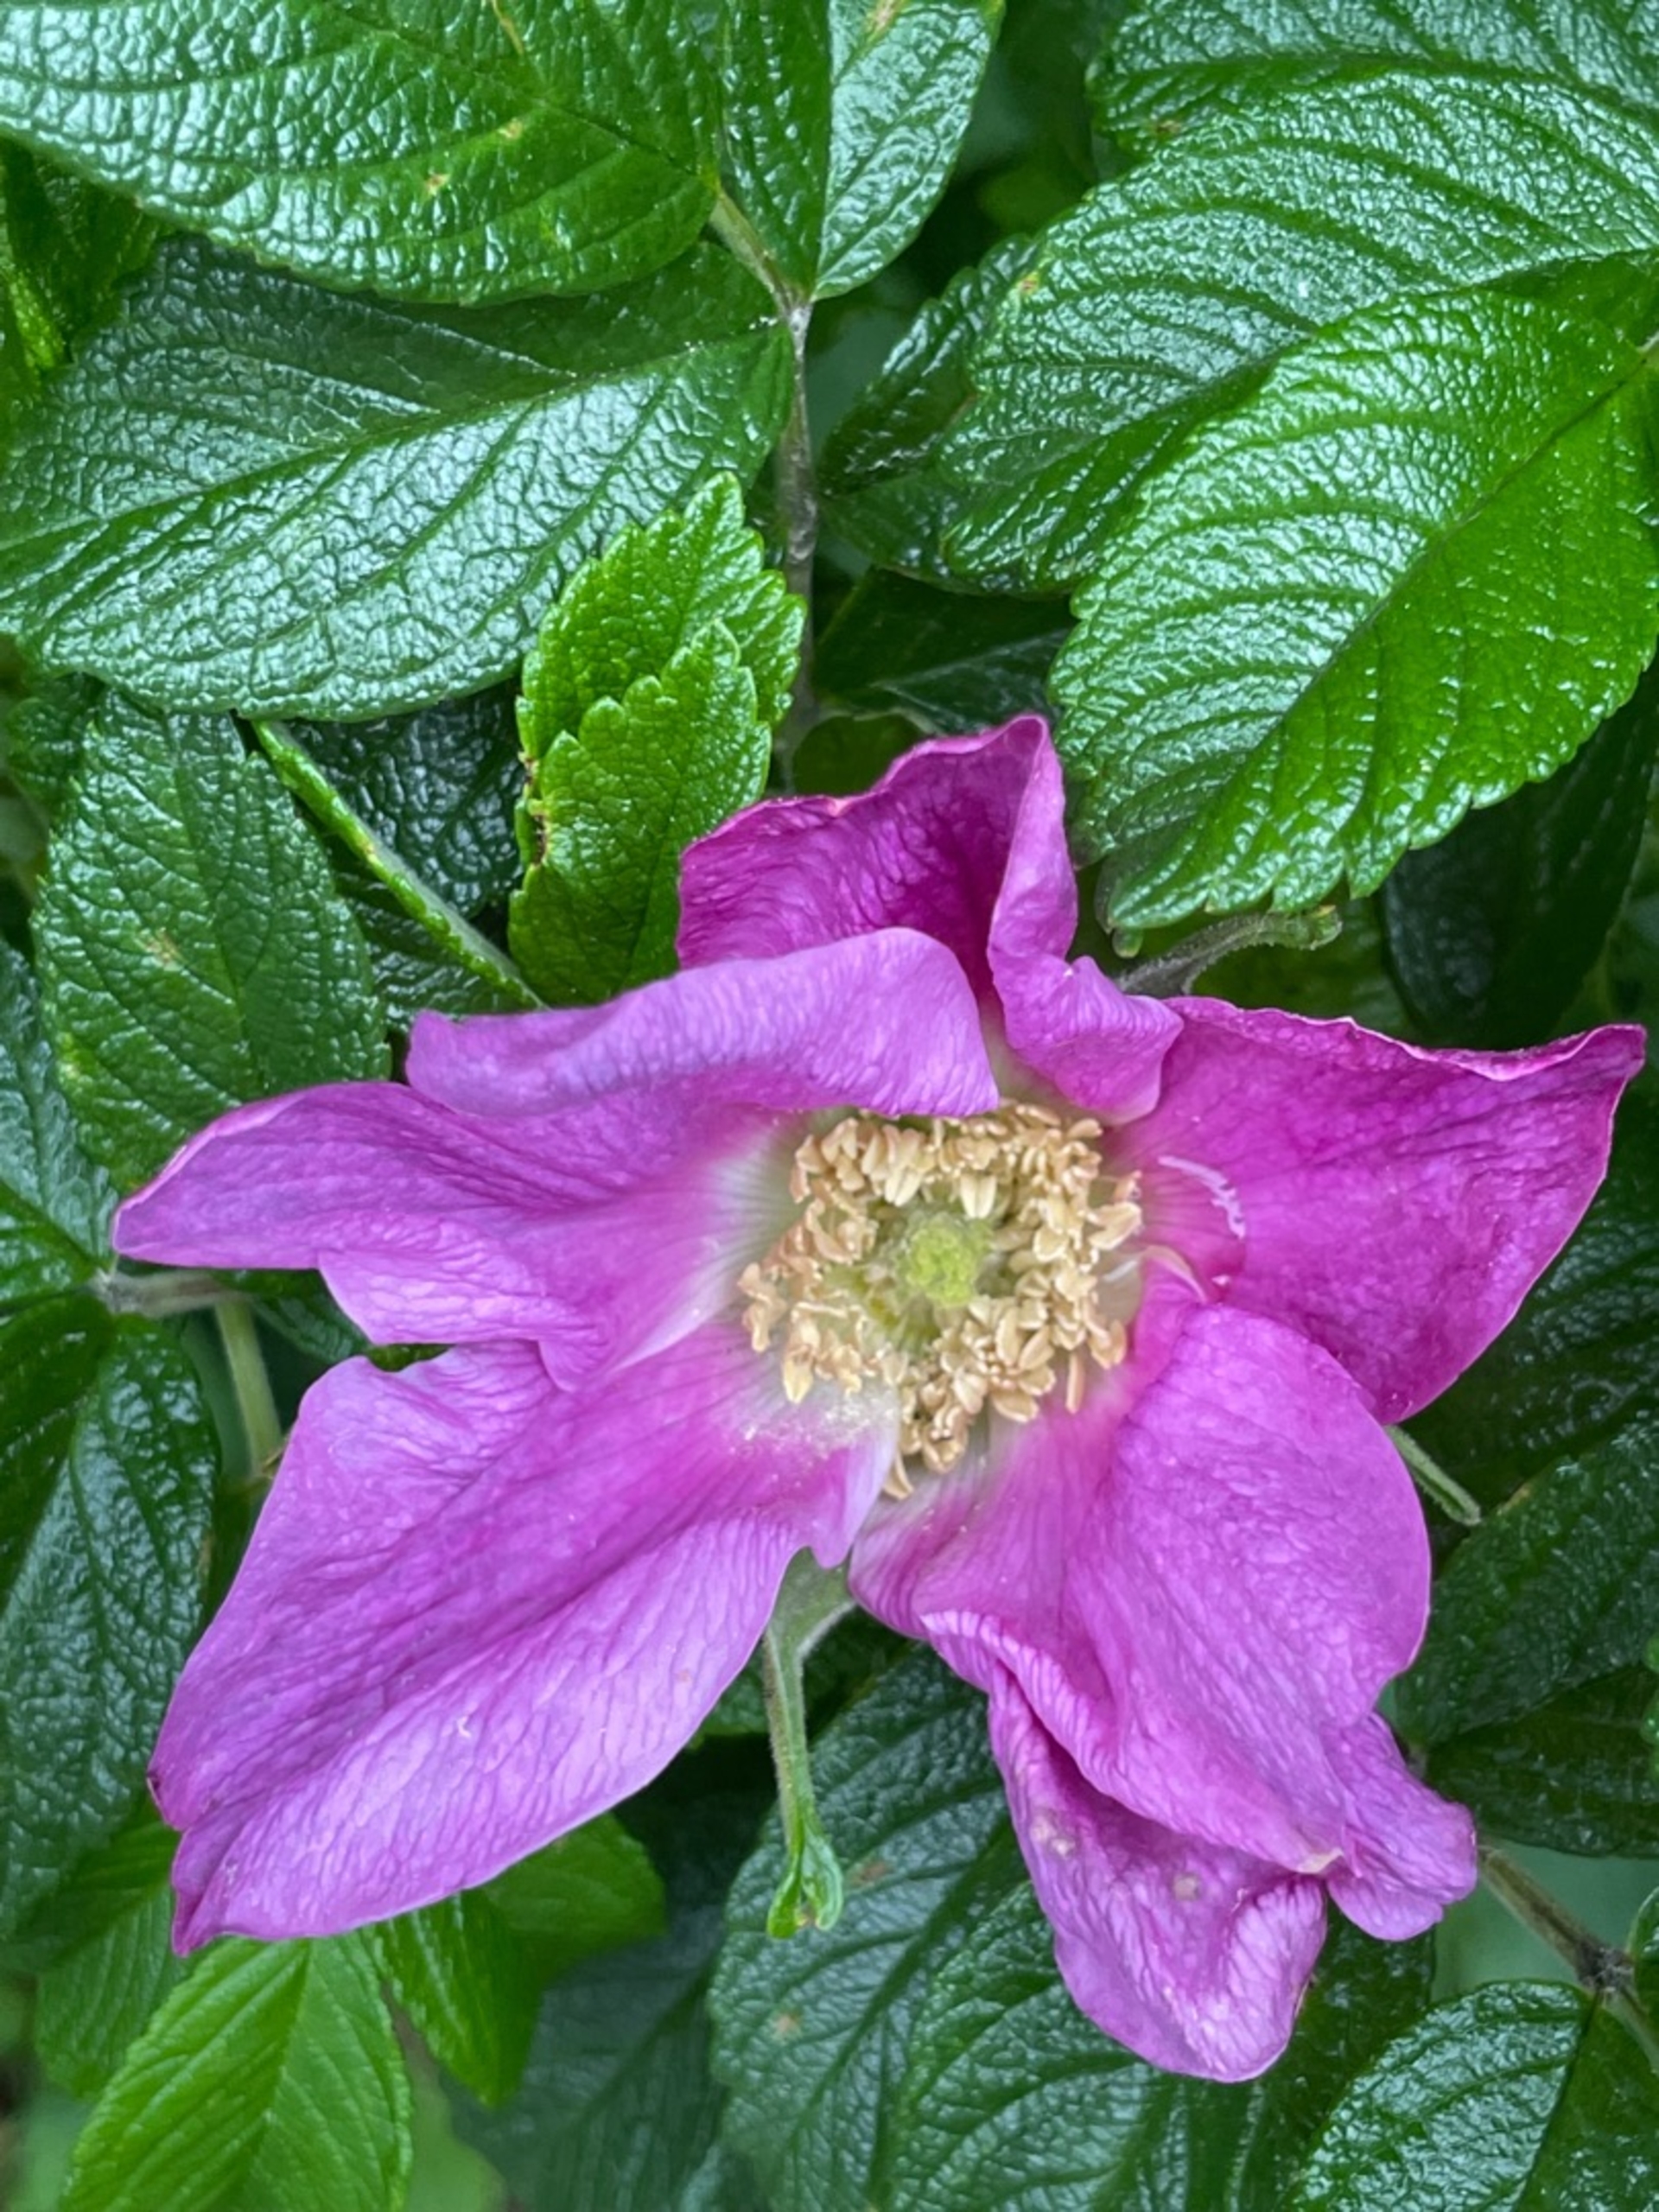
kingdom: Plantae
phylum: Tracheophyta
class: Magnoliopsida
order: Rosales
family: Rosaceae
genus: Rosa
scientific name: Rosa rugosa
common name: Rynket rose
